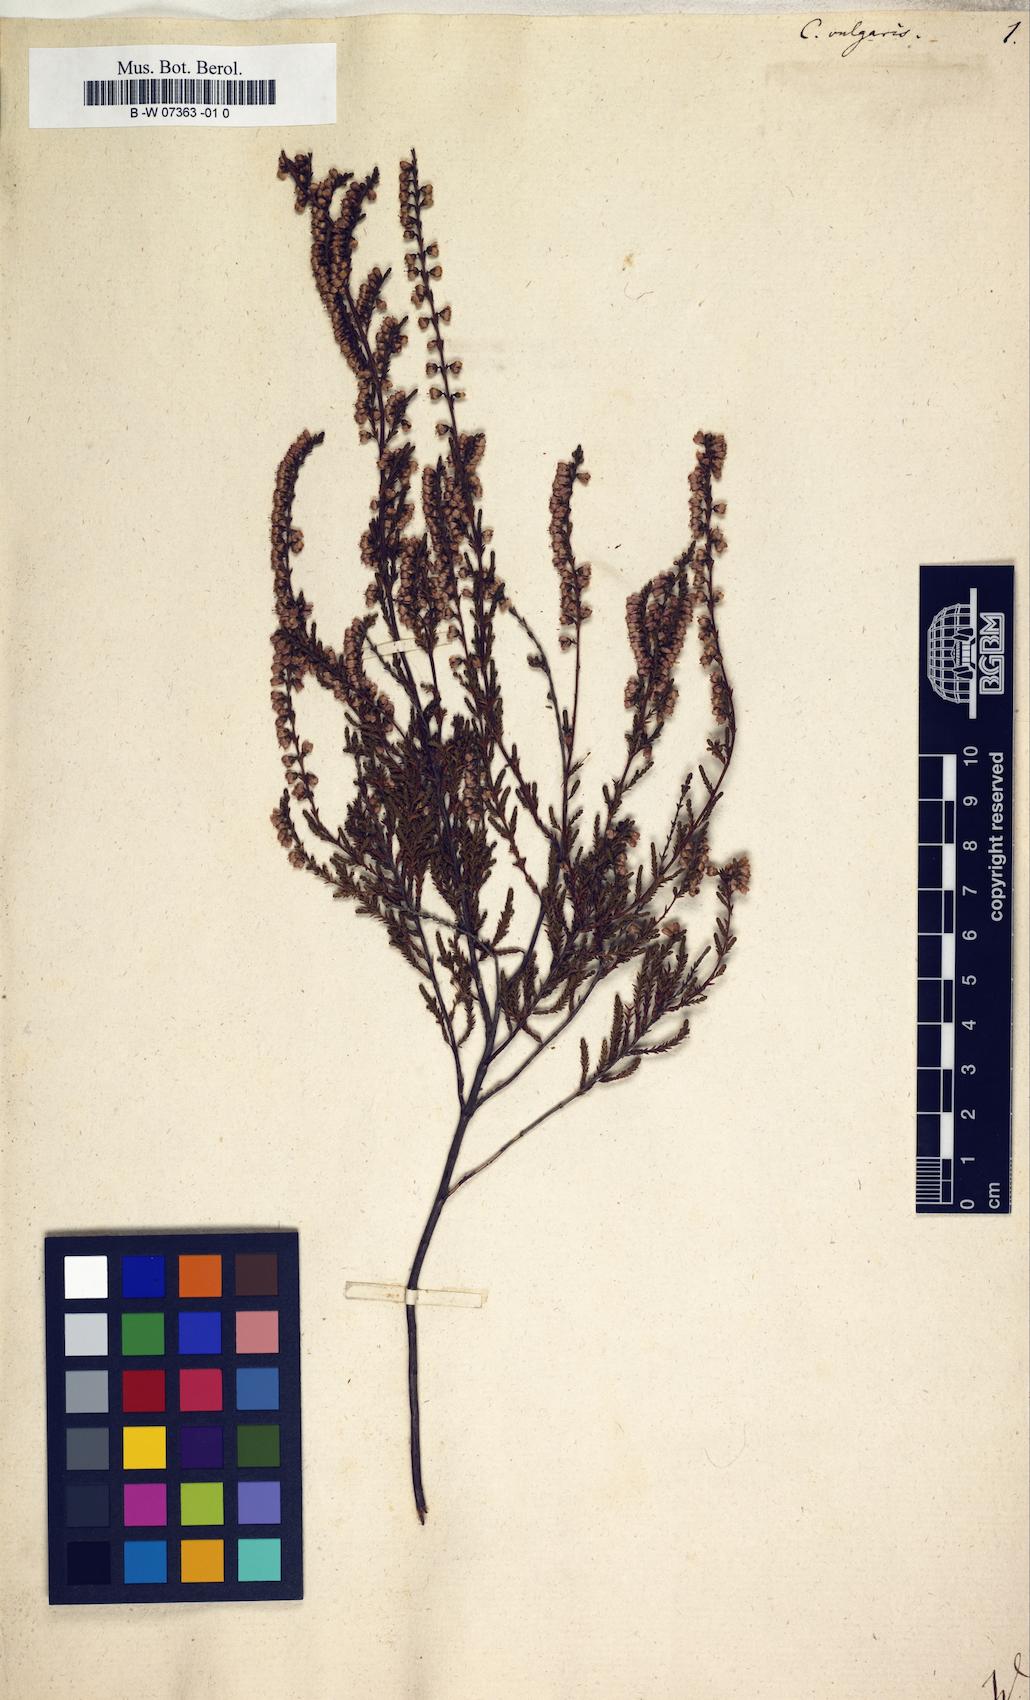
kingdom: Plantae
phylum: Tracheophyta
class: Magnoliopsida
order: Ericales
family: Ericaceae
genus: Calluna
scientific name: Calluna vulgaris
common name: Heather
